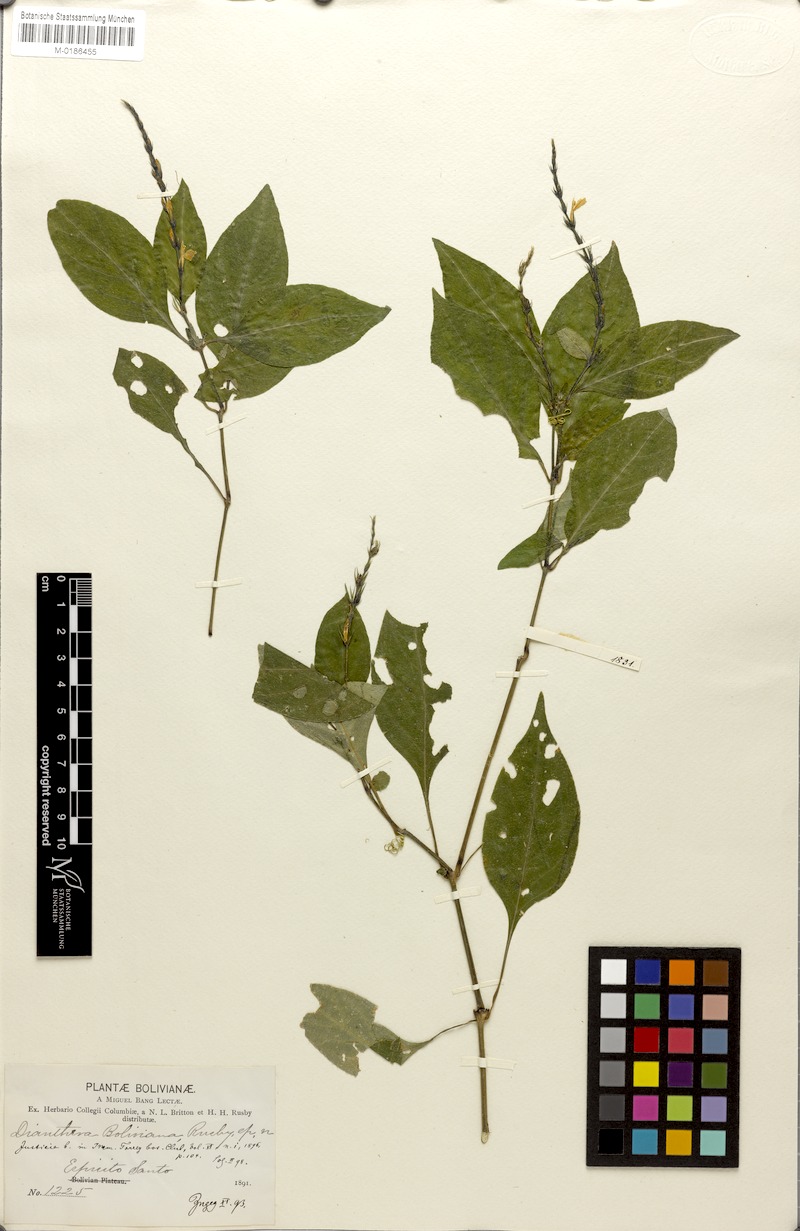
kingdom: Plantae
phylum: Tracheophyta
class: Magnoliopsida
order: Lamiales
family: Acanthaceae
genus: Justicia
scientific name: Justicia boliviana
